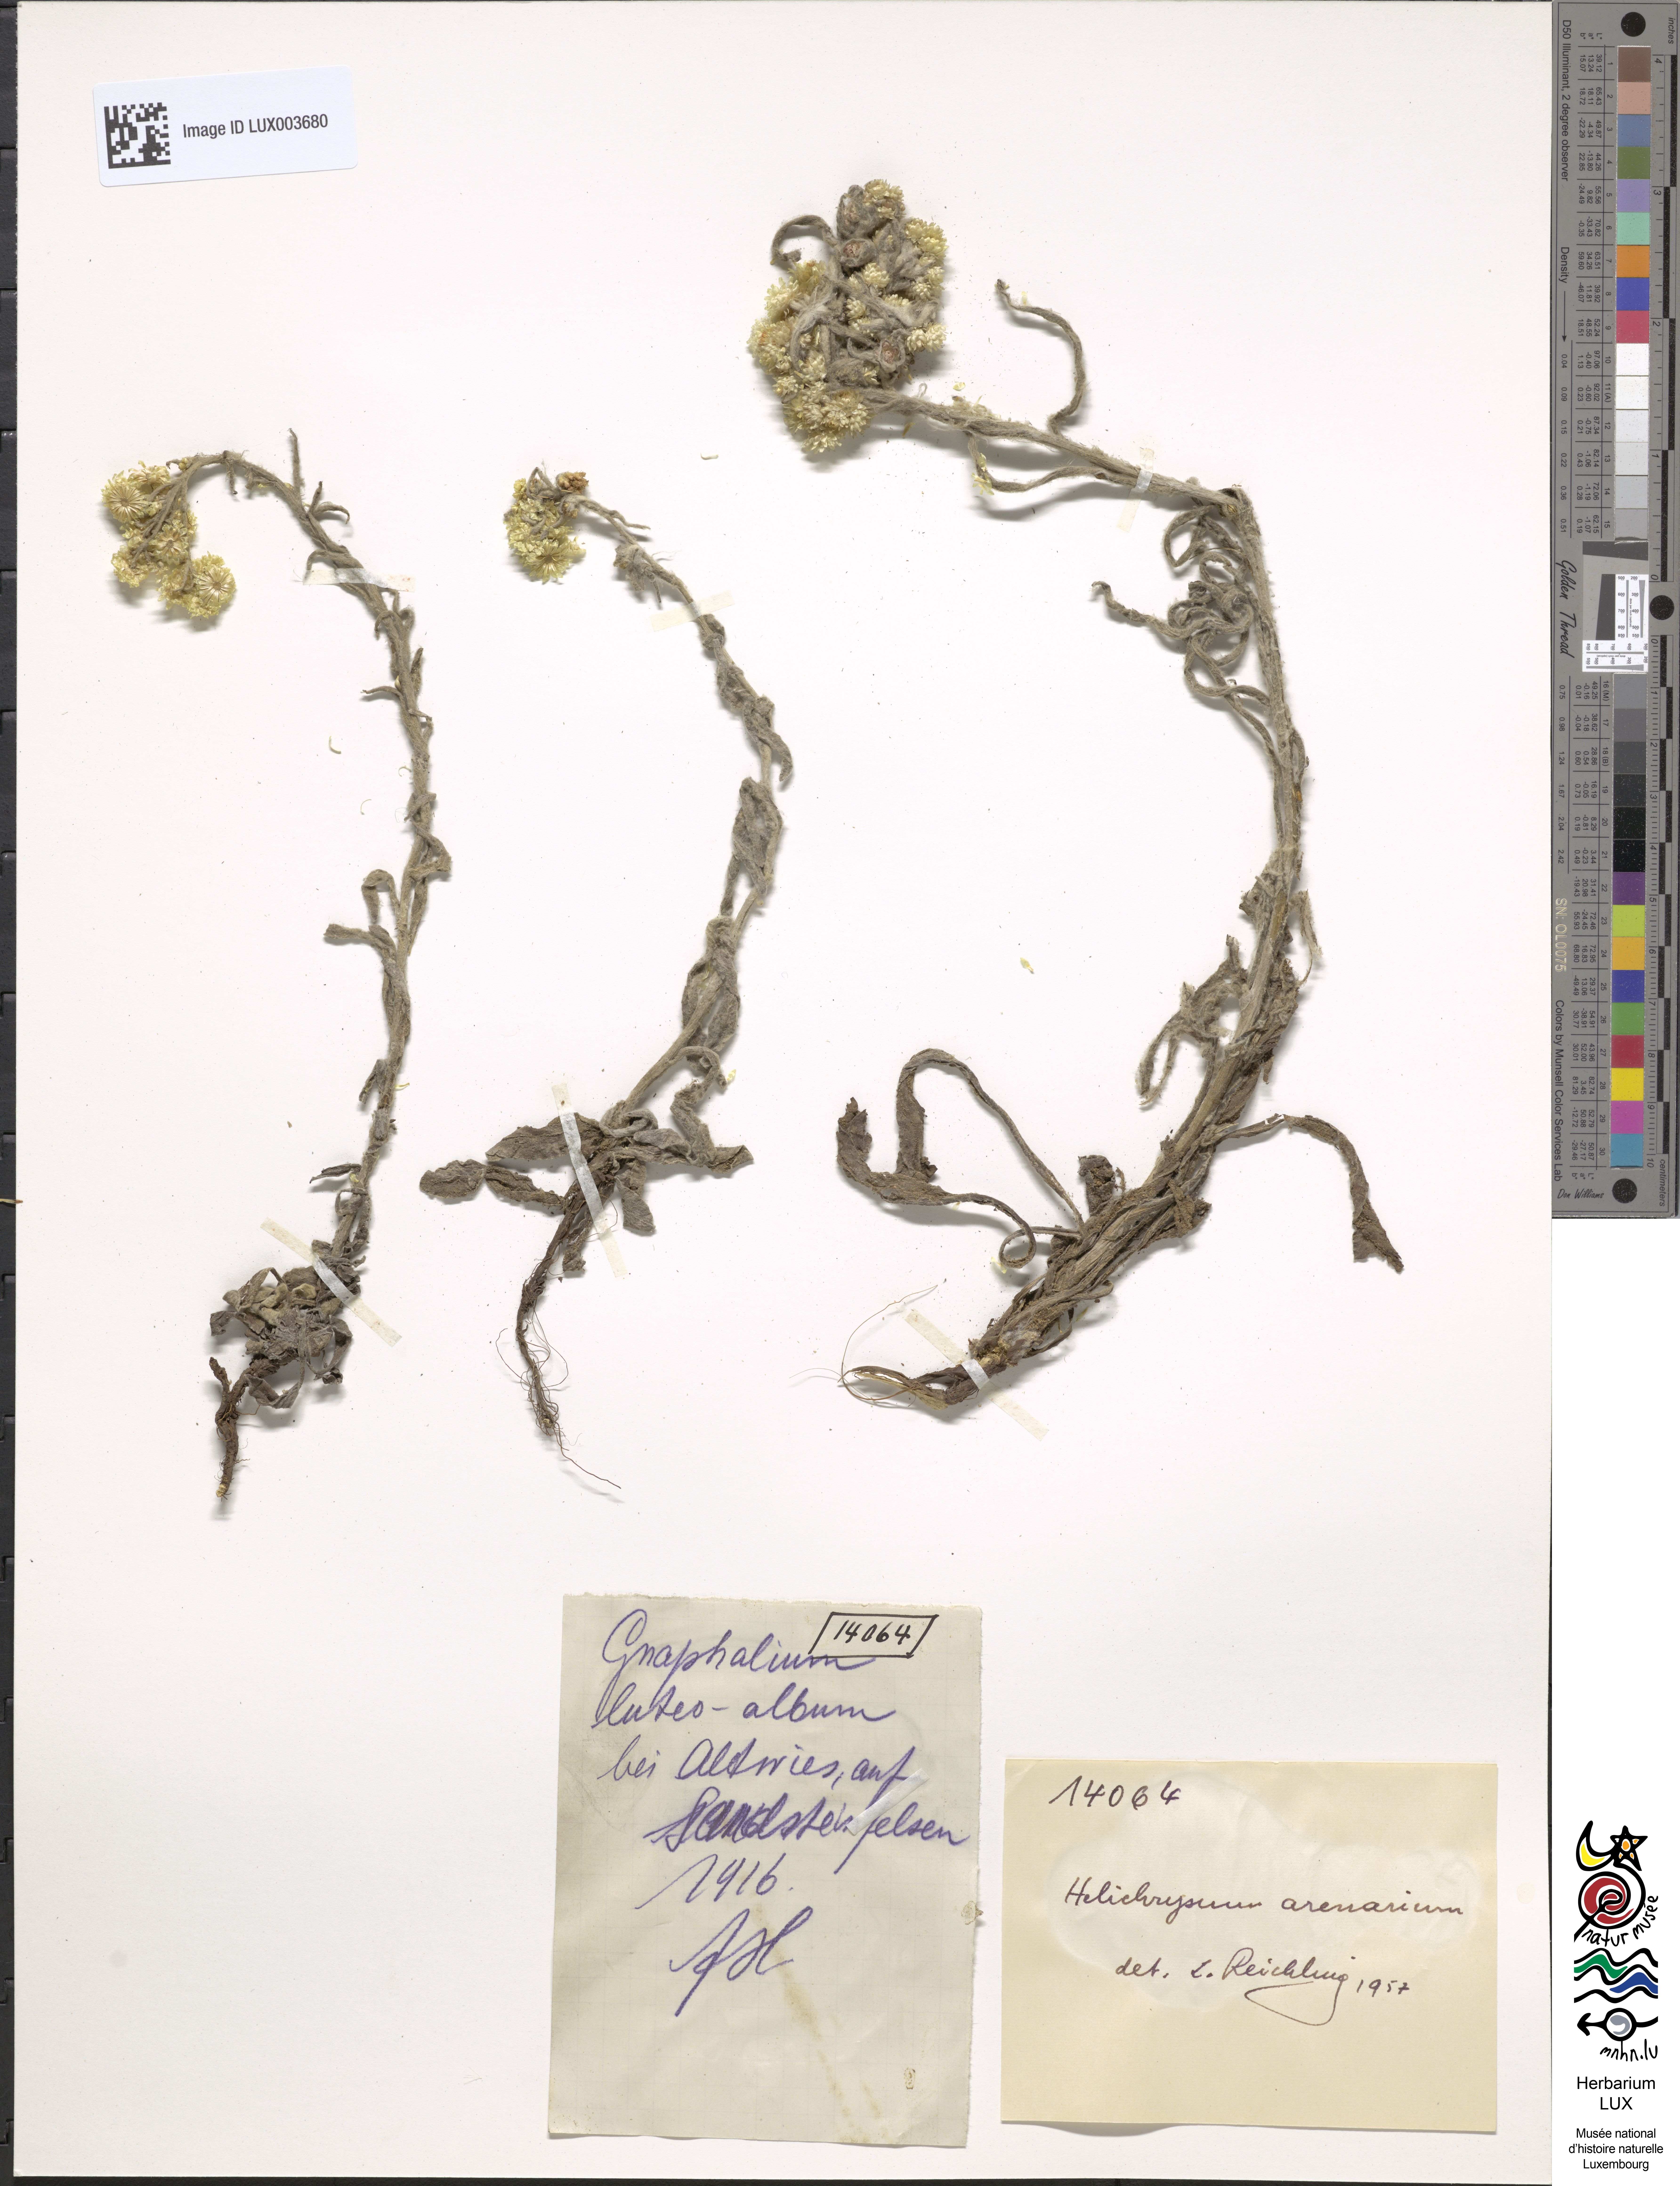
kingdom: Plantae
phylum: Tracheophyta
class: Magnoliopsida
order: Asterales
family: Asteraceae
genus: Helichrysum
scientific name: Helichrysum arenarium
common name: Strawflower
